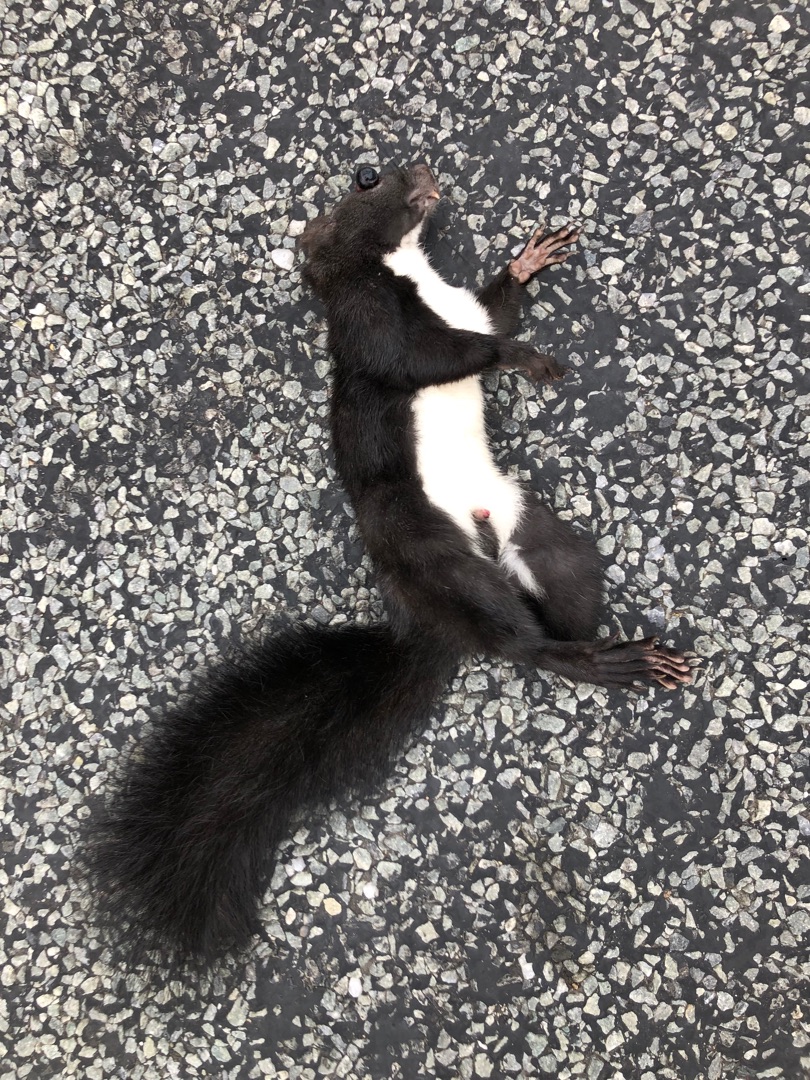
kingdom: Animalia
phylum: Chordata
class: Mammalia
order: Rodentia
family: Sciuridae
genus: Sciurus
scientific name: Sciurus vulgaris
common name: Egern
